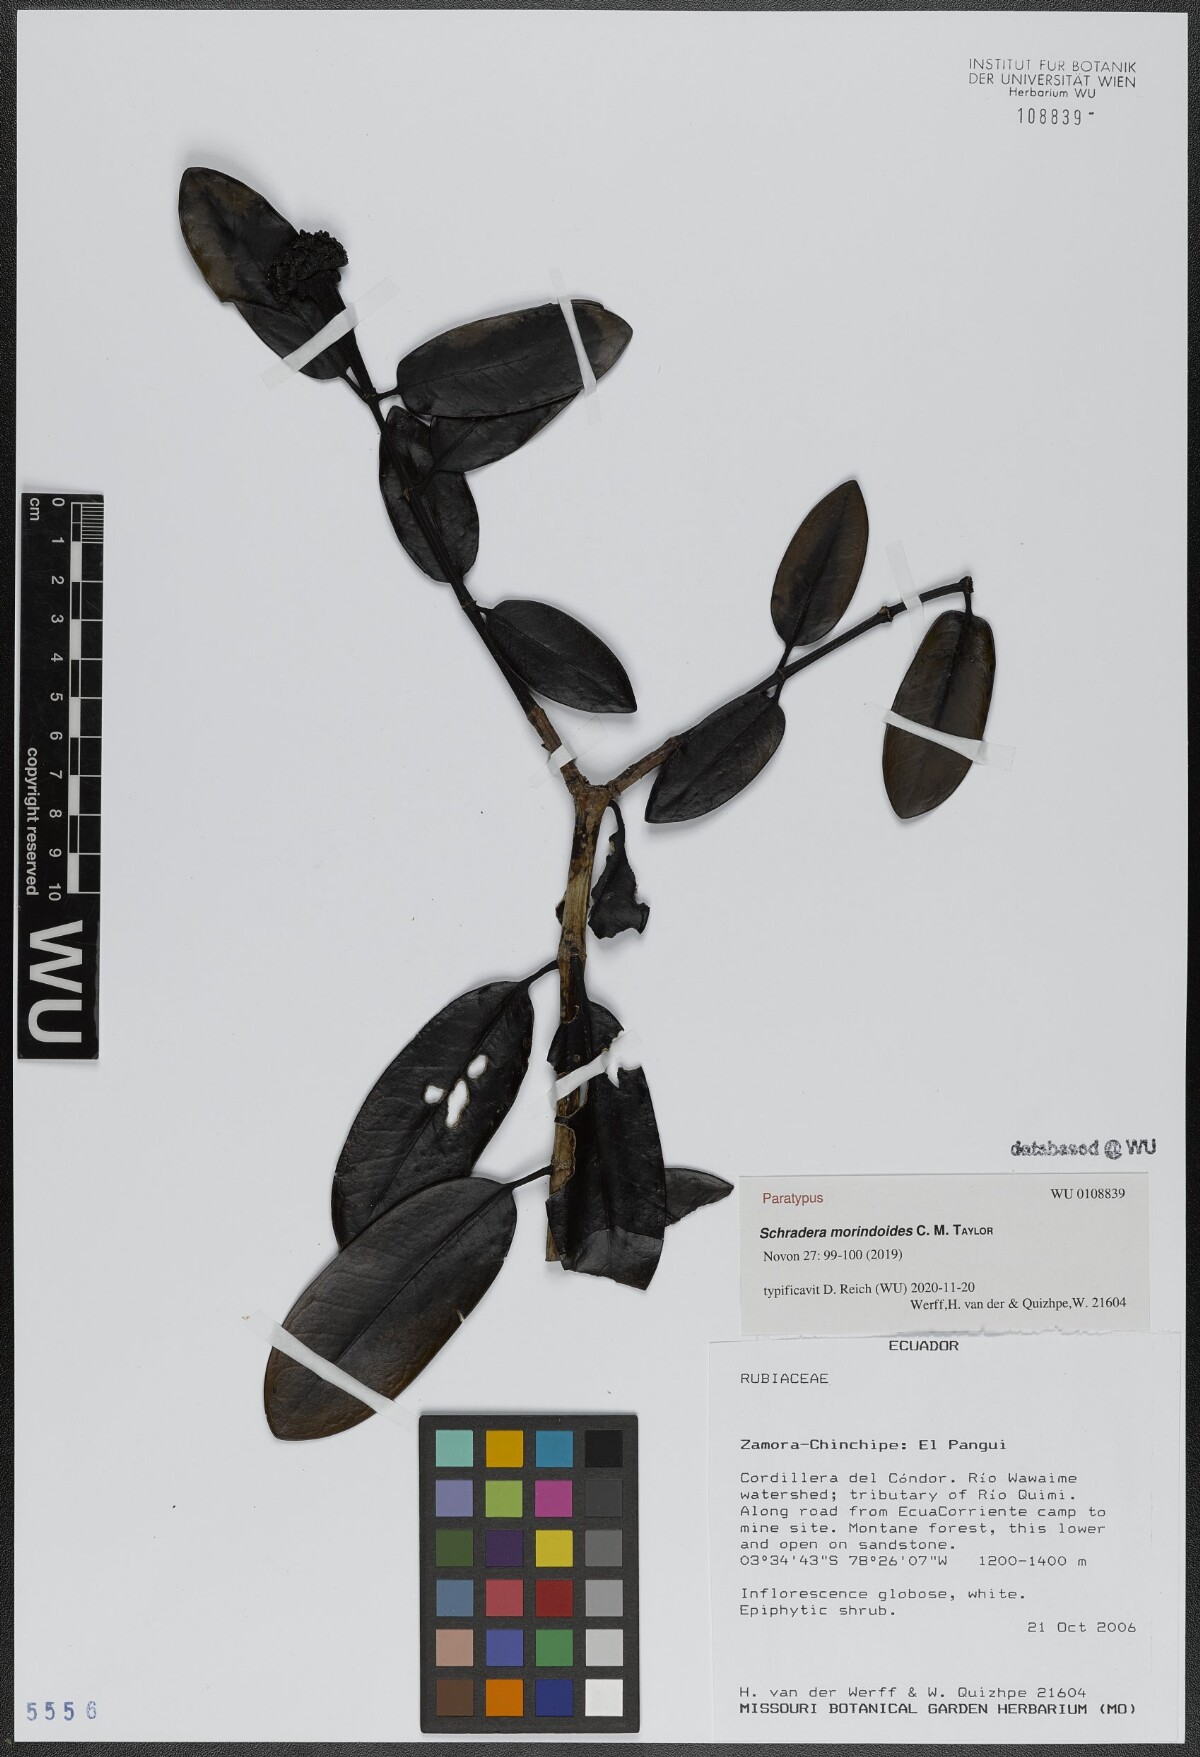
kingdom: Plantae
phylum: Tracheophyta
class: Magnoliopsida
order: Gentianales
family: Rubiaceae
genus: Schradera
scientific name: Schradera condorica
